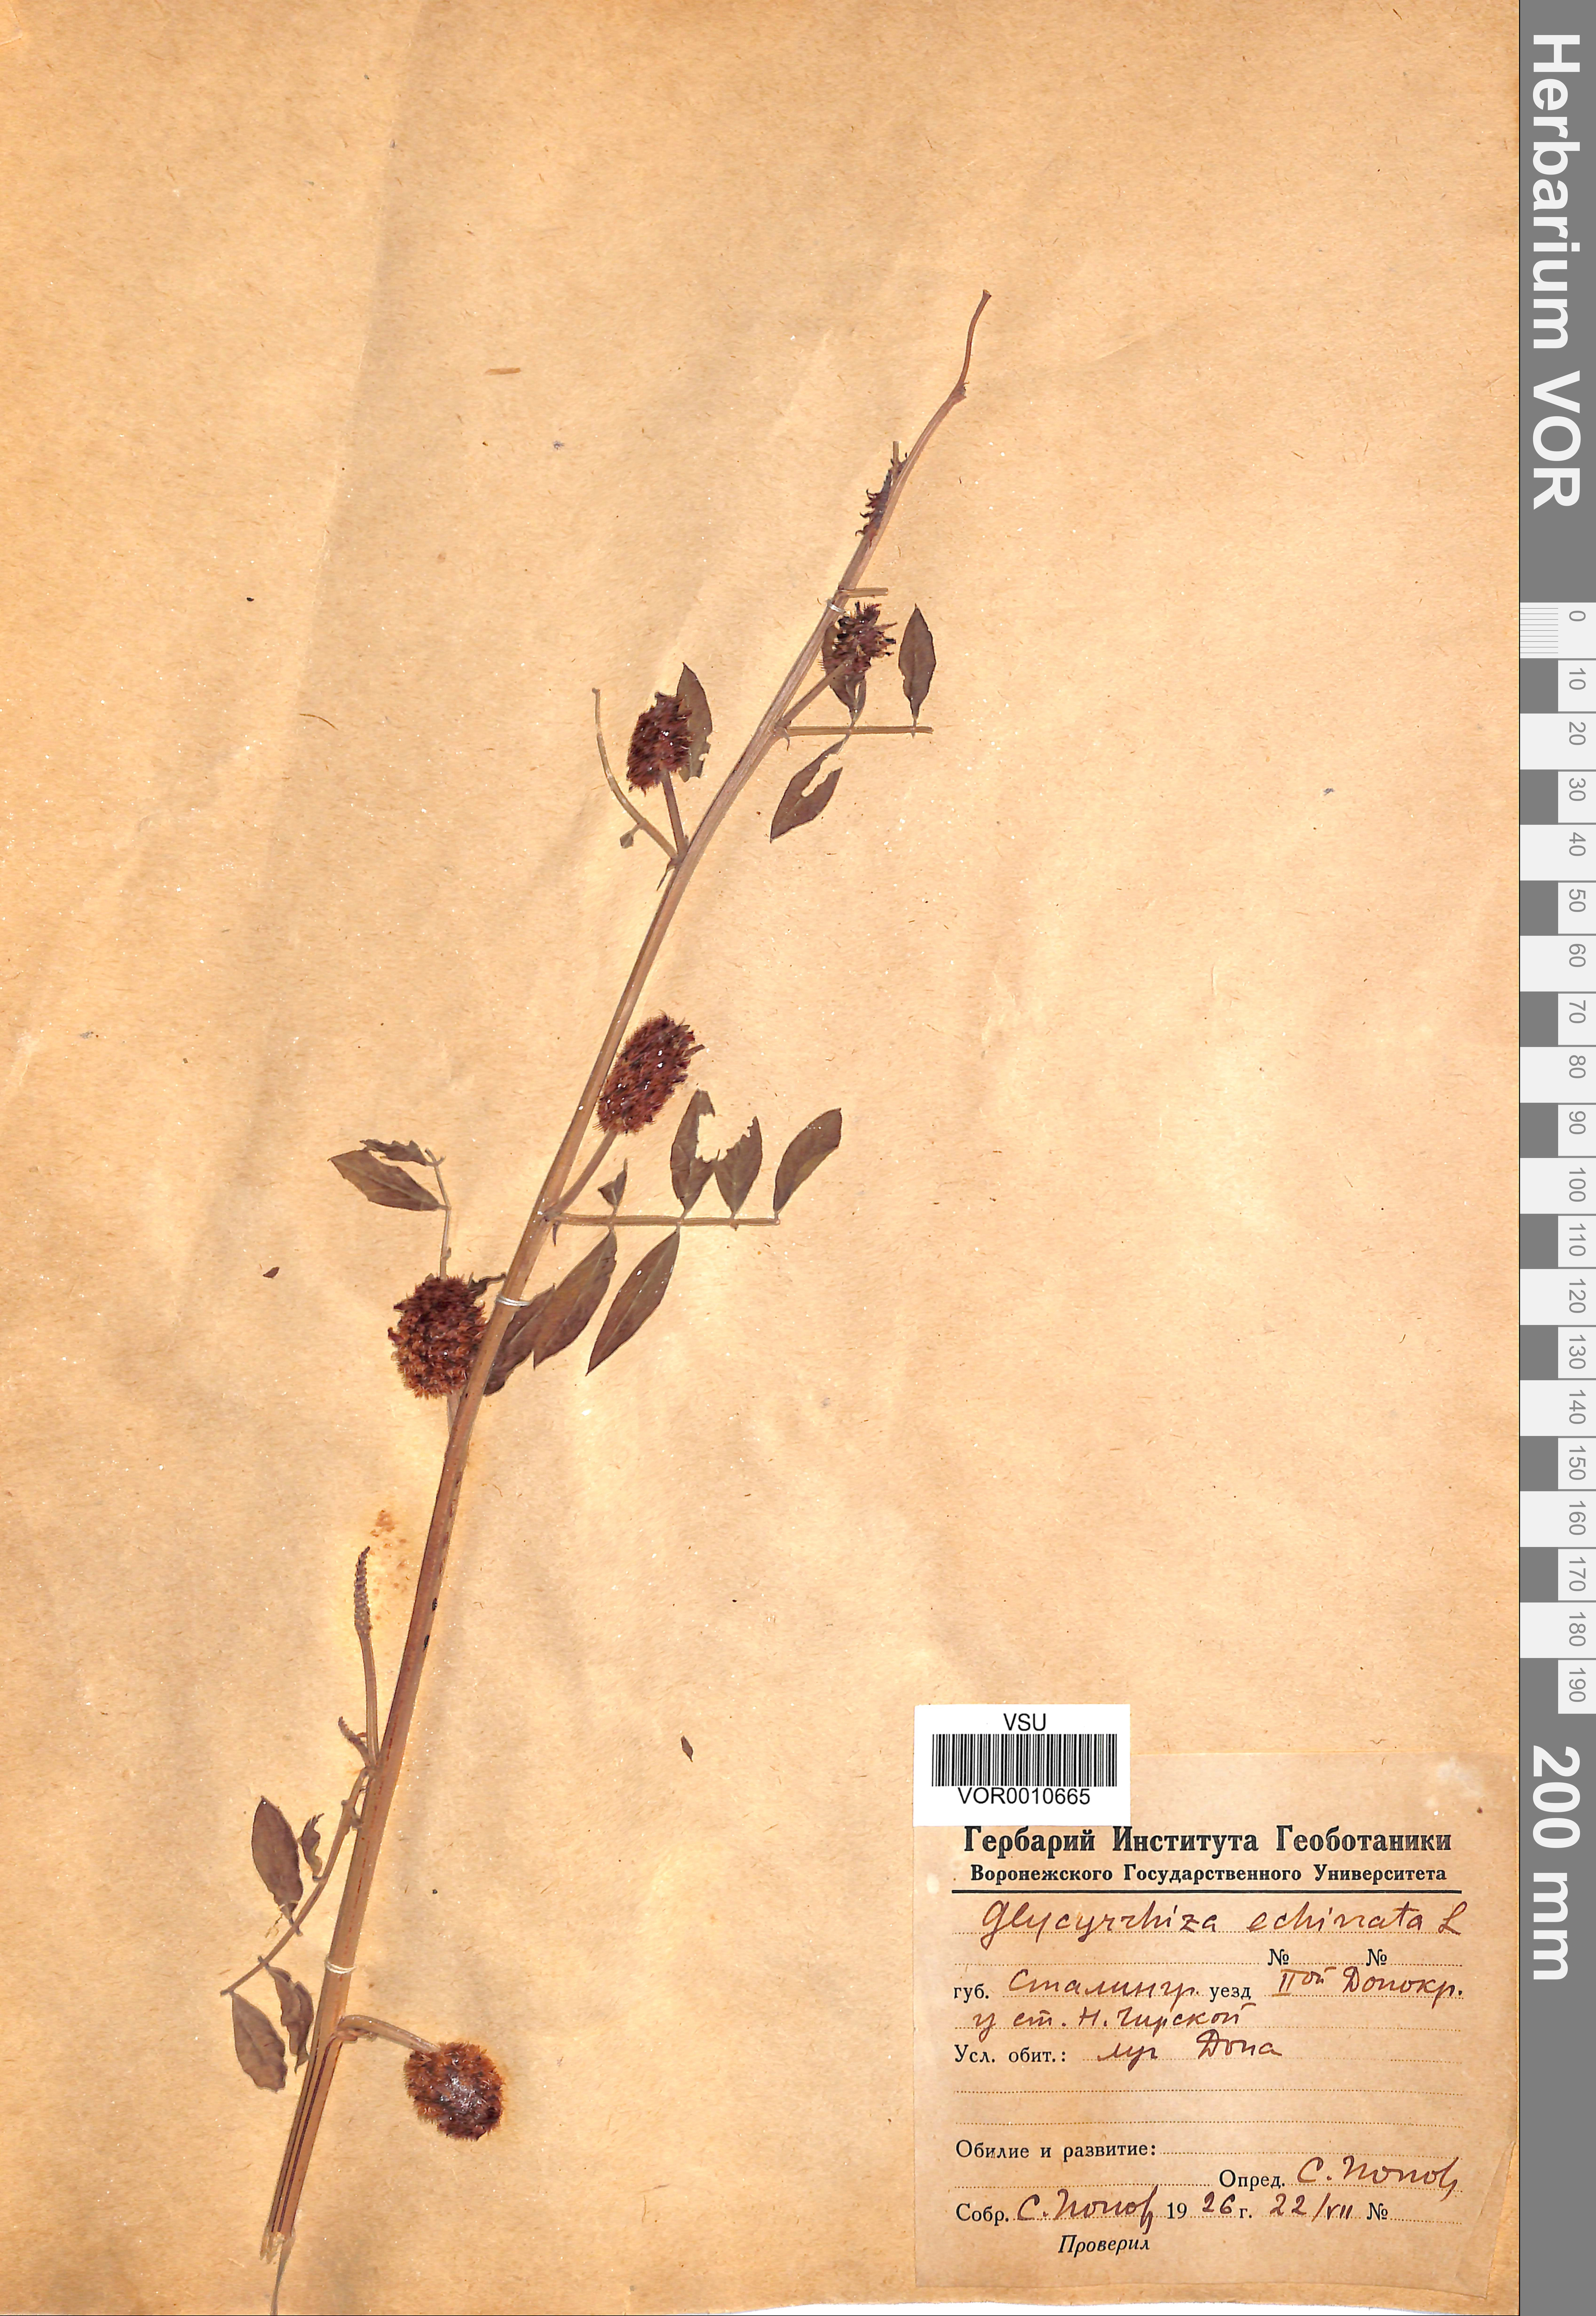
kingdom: Plantae
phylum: Tracheophyta
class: Magnoliopsida
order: Fabales
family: Fabaceae
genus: Glycyrrhiza
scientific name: Glycyrrhiza echinata
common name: German liquorice
